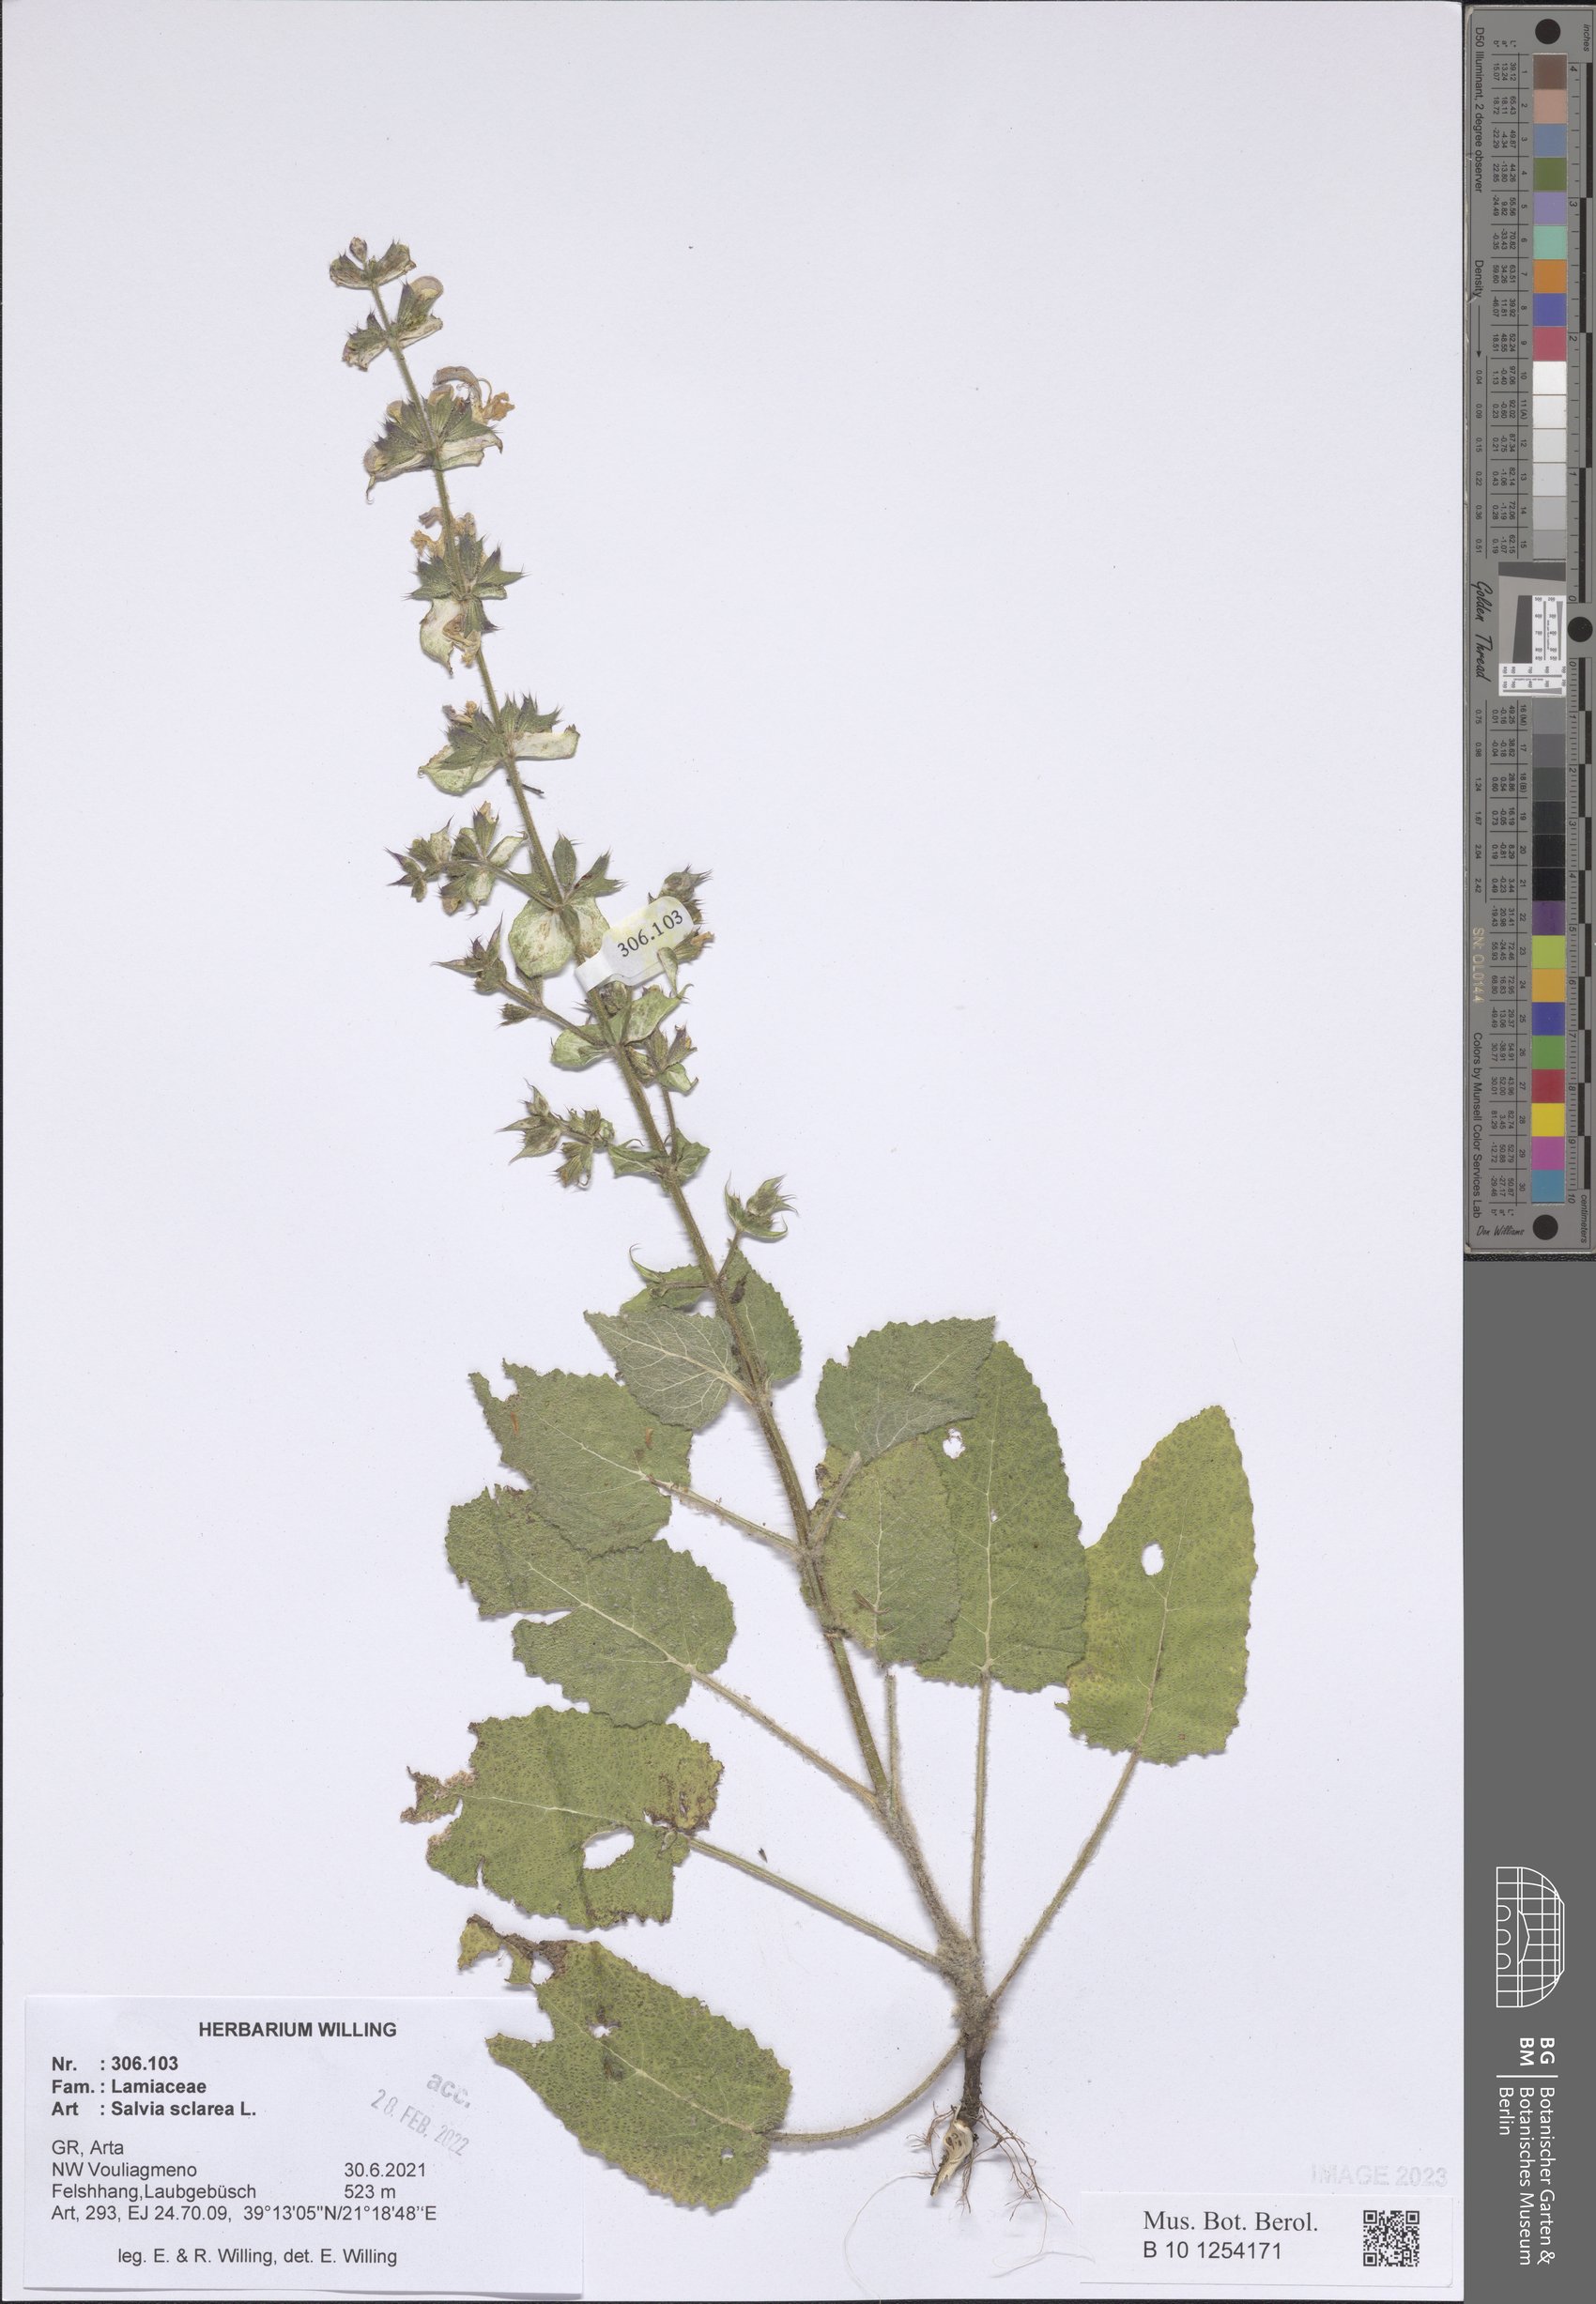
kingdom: Plantae
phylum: Tracheophyta
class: Magnoliopsida
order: Lamiales
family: Lamiaceae
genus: Salvia
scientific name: Salvia sclarea
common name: Clary
